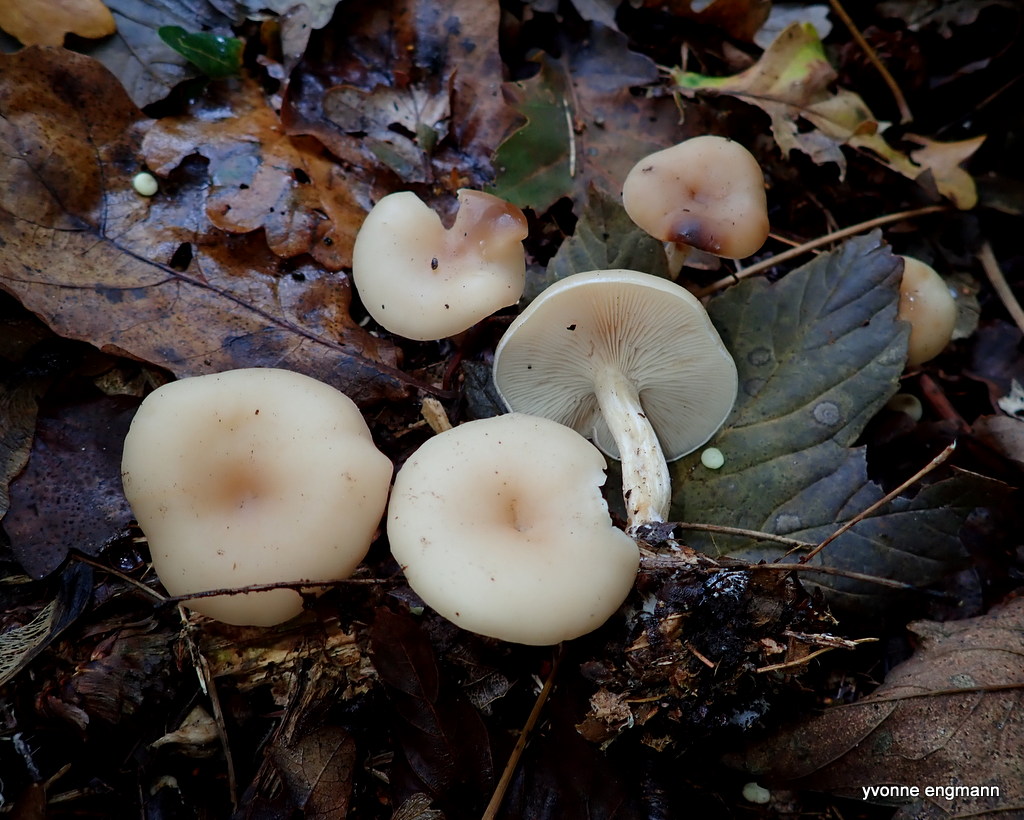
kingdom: Fungi
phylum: Basidiomycota
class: Agaricomycetes
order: Agaricales
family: Tricholomataceae
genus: Clitocybe
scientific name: Clitocybe
